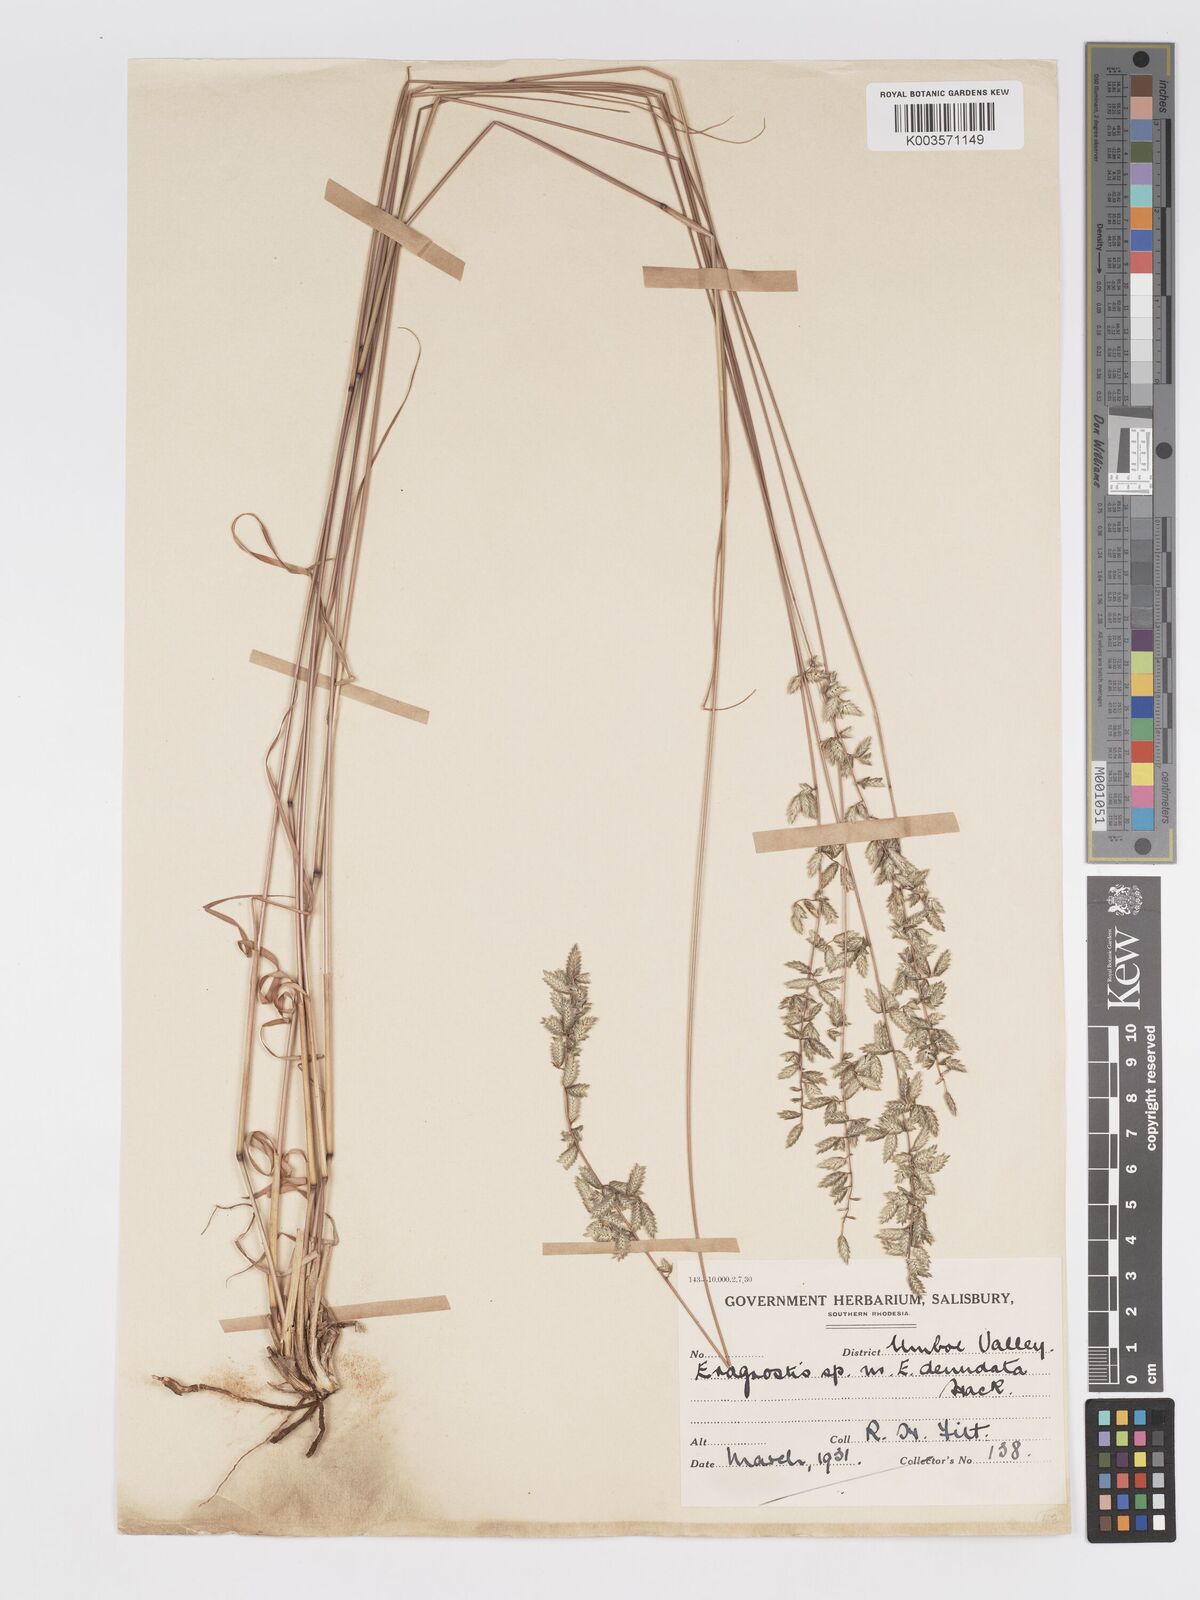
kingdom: Plantae
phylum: Tracheophyta
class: Liliopsida
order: Poales
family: Poaceae
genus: Eragrostis
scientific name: Eragrostis nindensis
